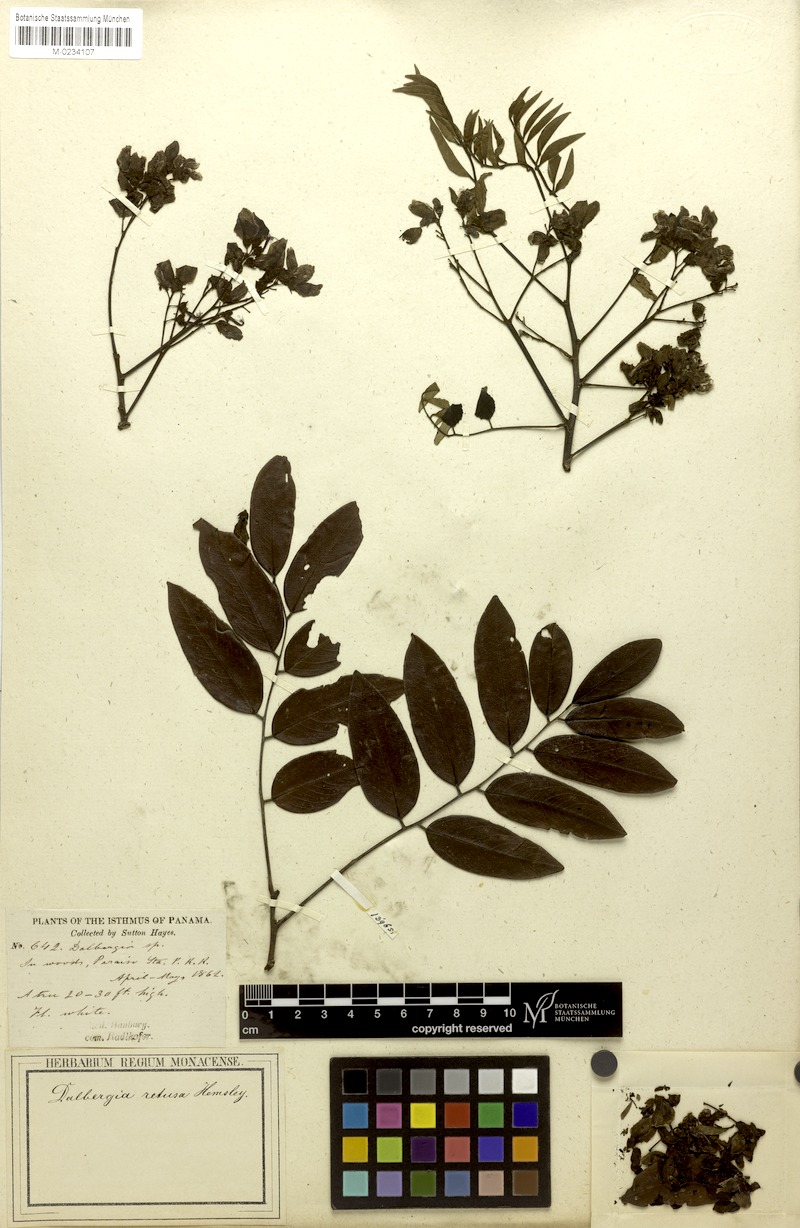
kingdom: Plantae
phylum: Tracheophyta
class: Magnoliopsida
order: Fabales
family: Fabaceae
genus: Dalbergia
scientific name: Dalbergia retusa
